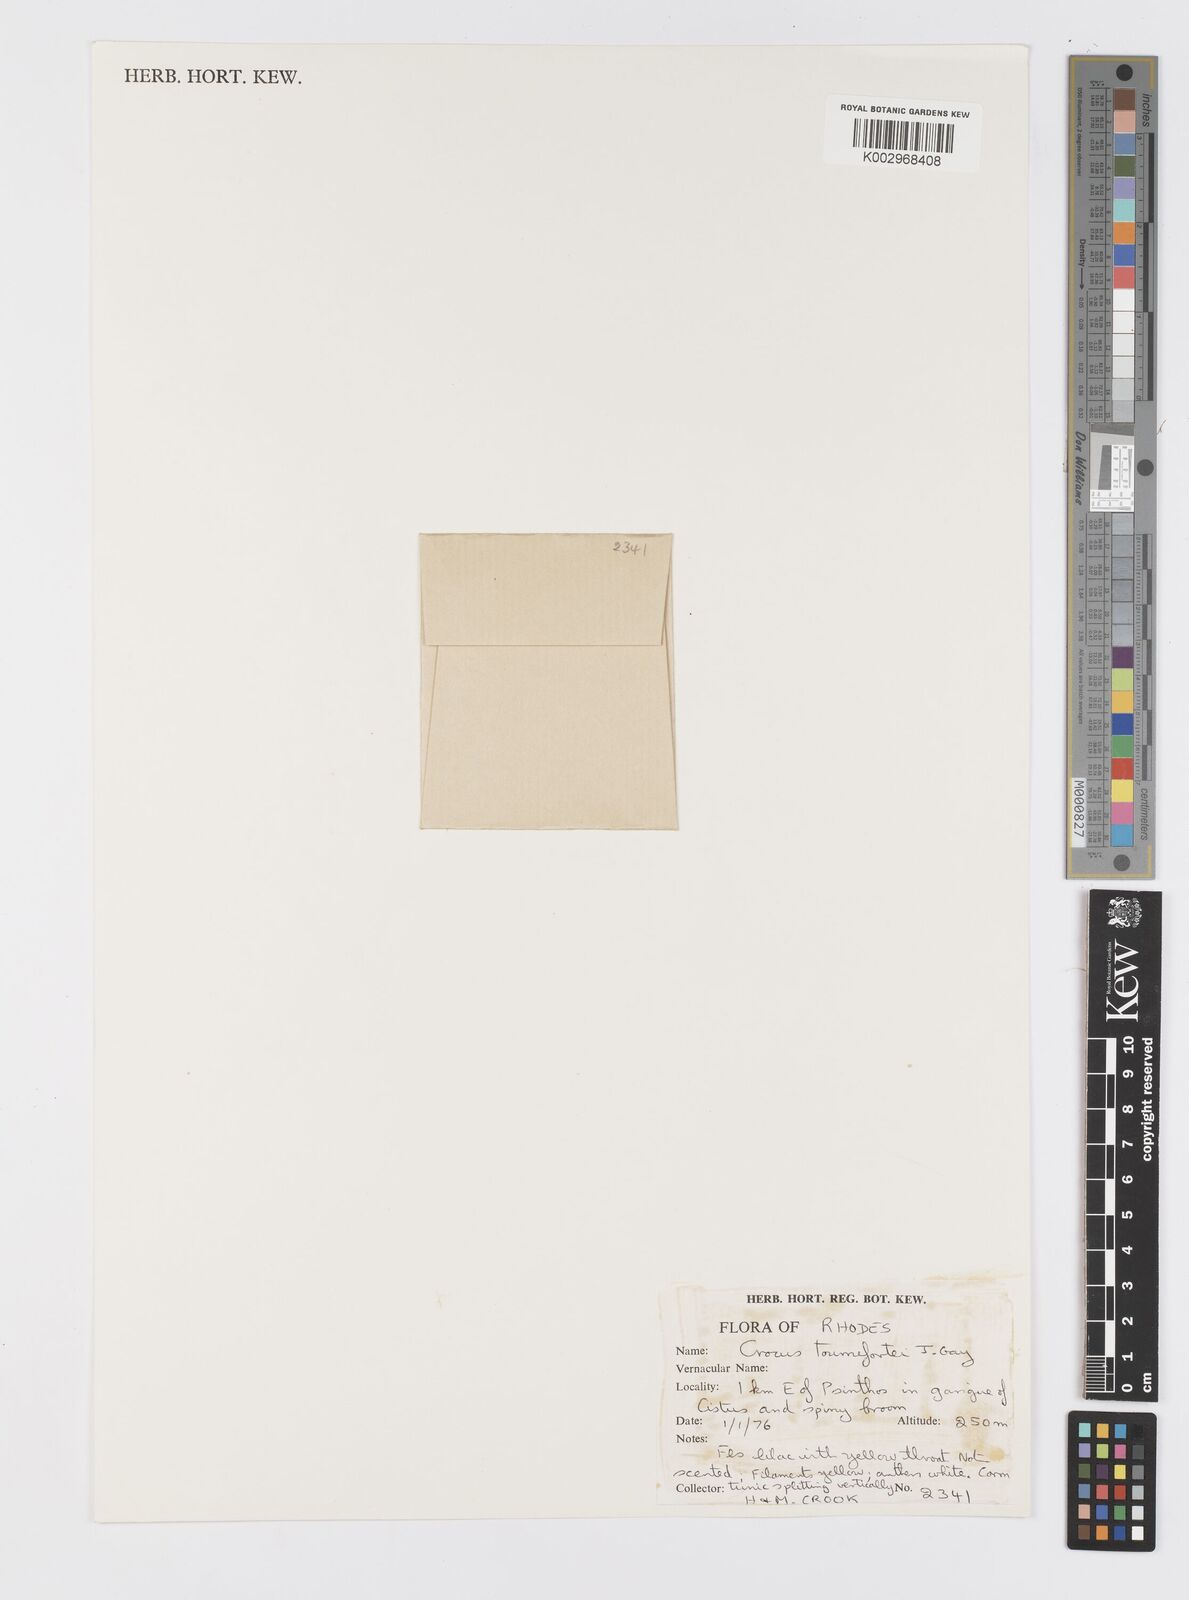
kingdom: Plantae
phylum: Tracheophyta
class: Liliopsida
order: Asparagales
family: Iridaceae
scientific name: Iridaceae
